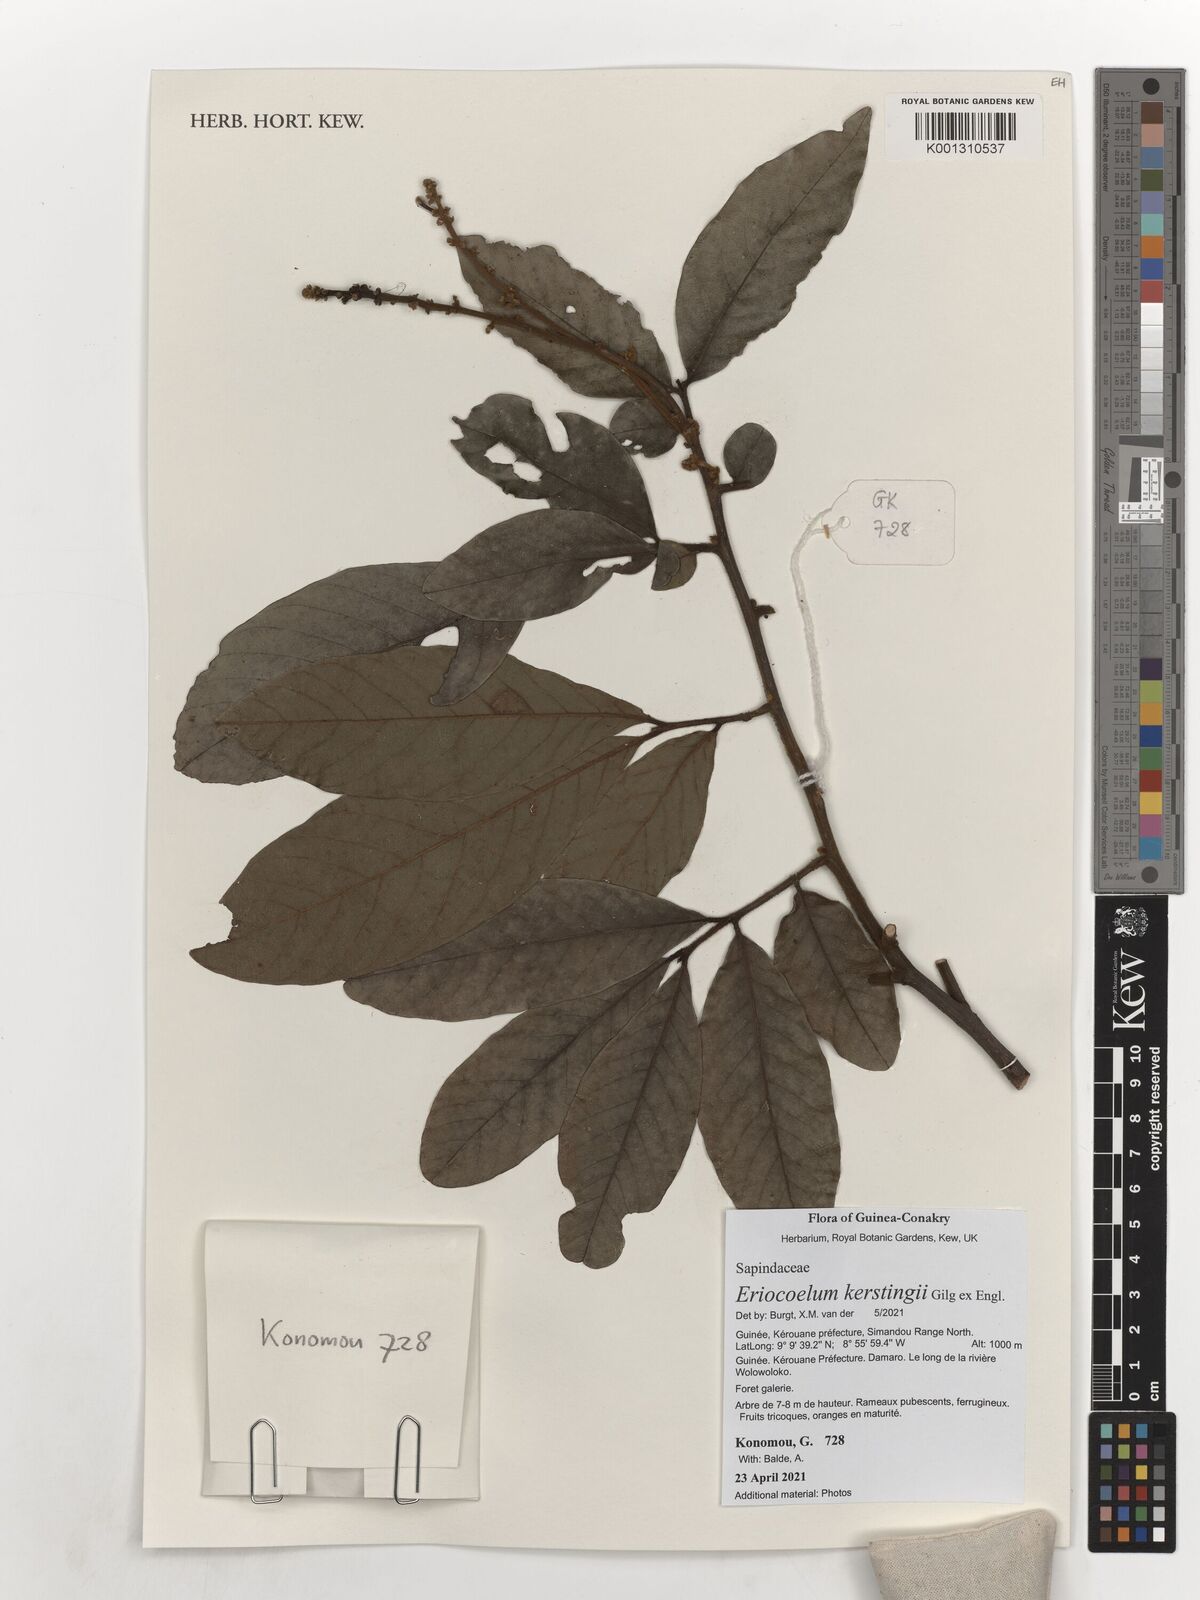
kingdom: Plantae
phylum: Tracheophyta
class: Magnoliopsida
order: Sapindales
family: Sapindaceae
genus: Eriocoelum
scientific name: Eriocoelum kerstingii
